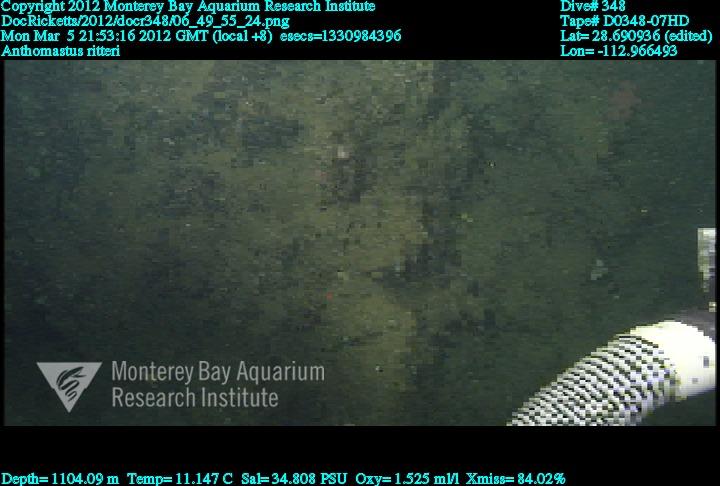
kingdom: Animalia
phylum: Cnidaria
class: Anthozoa
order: Scleralcyonacea
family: Coralliidae
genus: Heteropolypus
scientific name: Heteropolypus ritteri
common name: Ritter's soft coral
